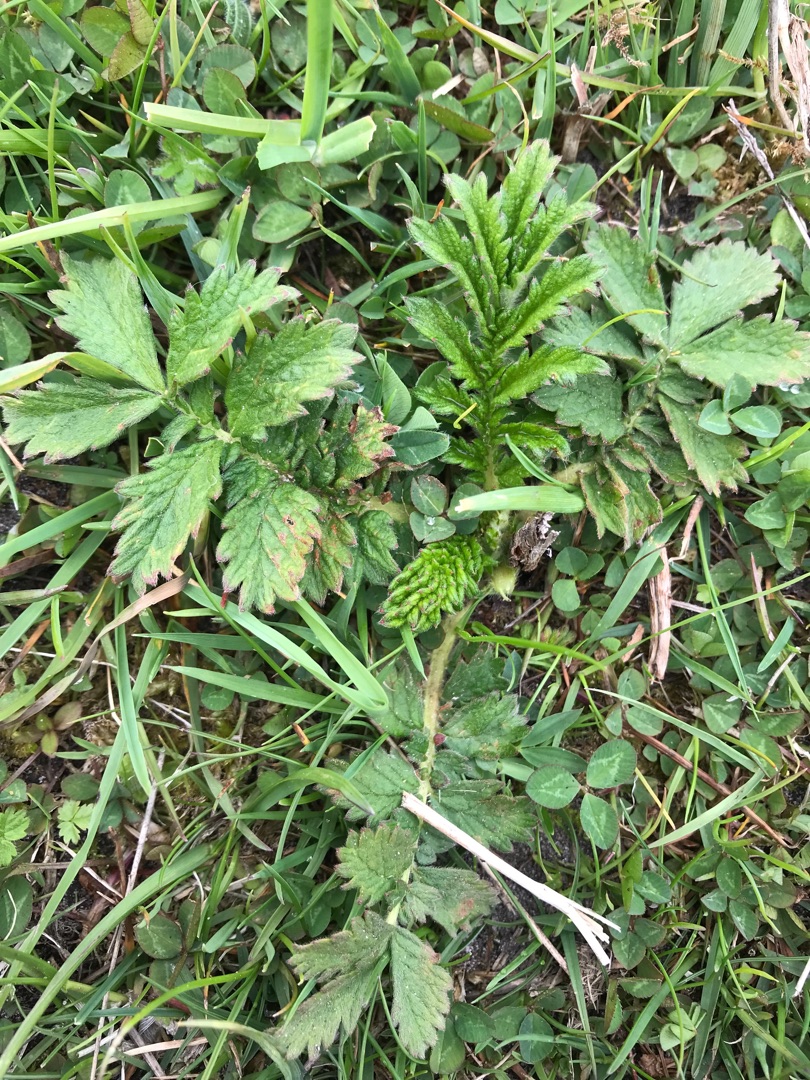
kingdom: Plantae
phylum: Tracheophyta
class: Magnoliopsida
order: Rosales
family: Rosaceae
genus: Agrimonia
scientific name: Agrimonia eupatoria
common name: Almindelig agermåne
